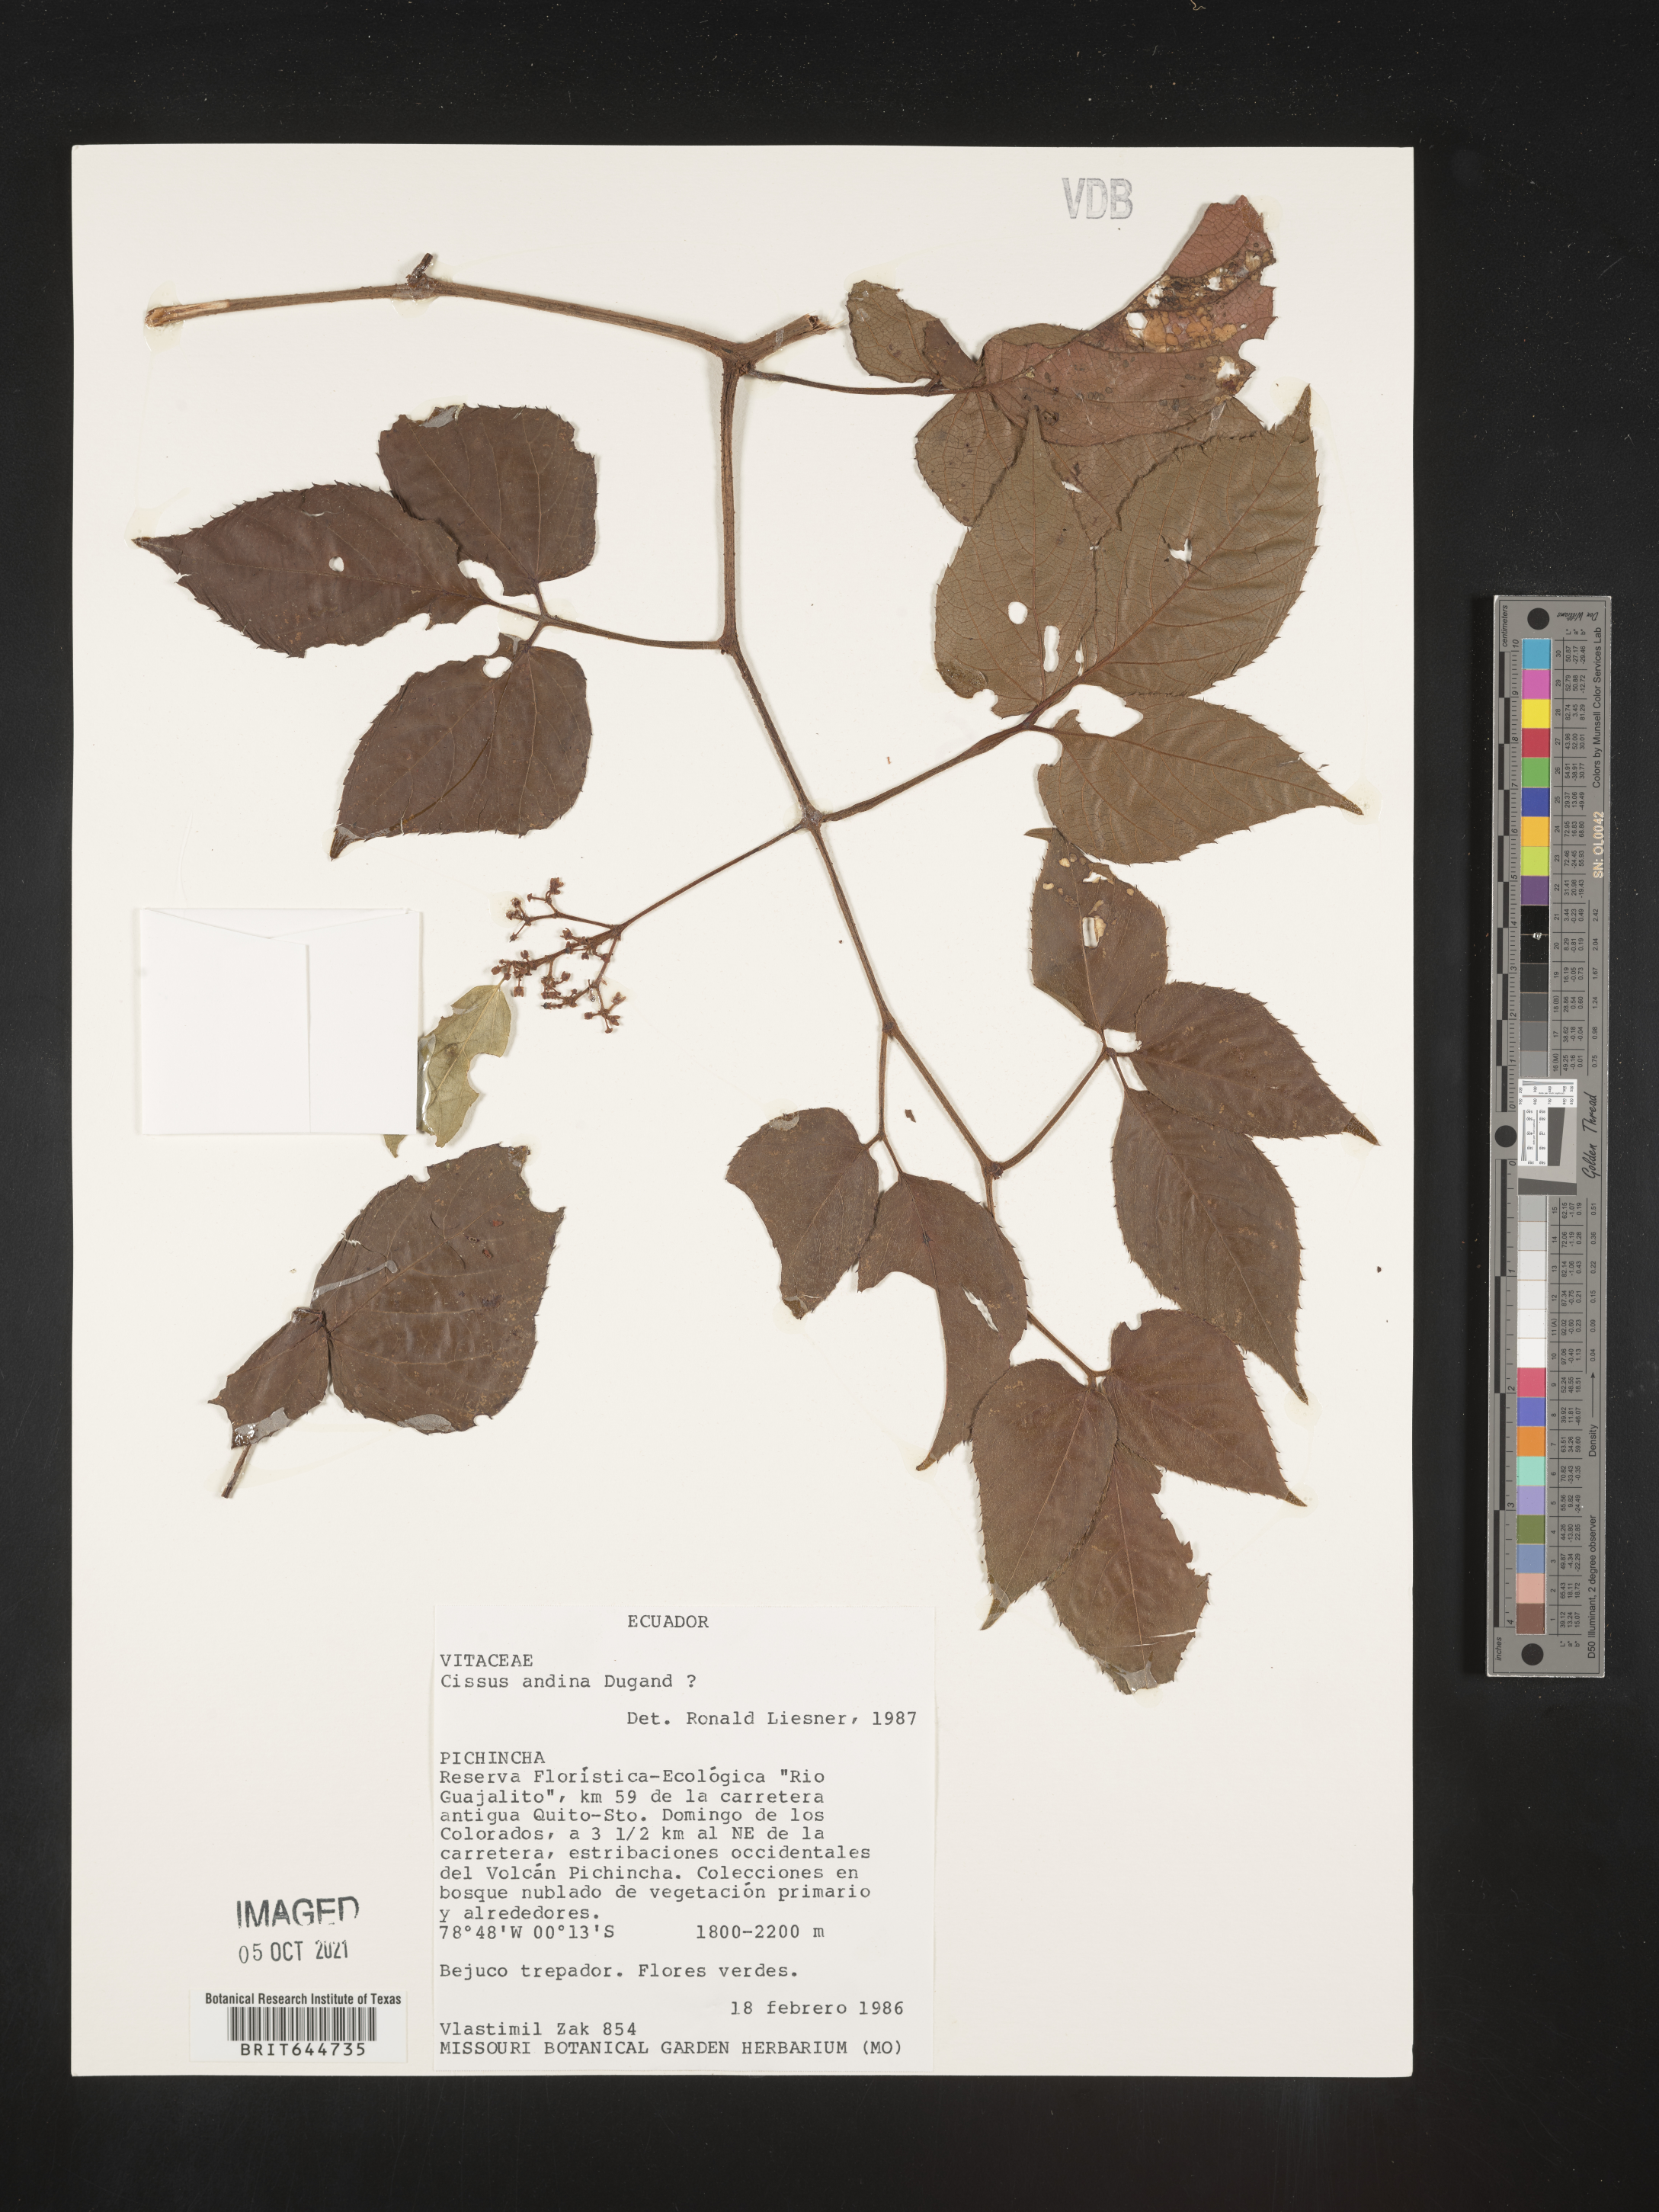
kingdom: Plantae
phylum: Tracheophyta
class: Magnoliopsida
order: Vitales
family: Vitaceae
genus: Cissus
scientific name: Cissus
